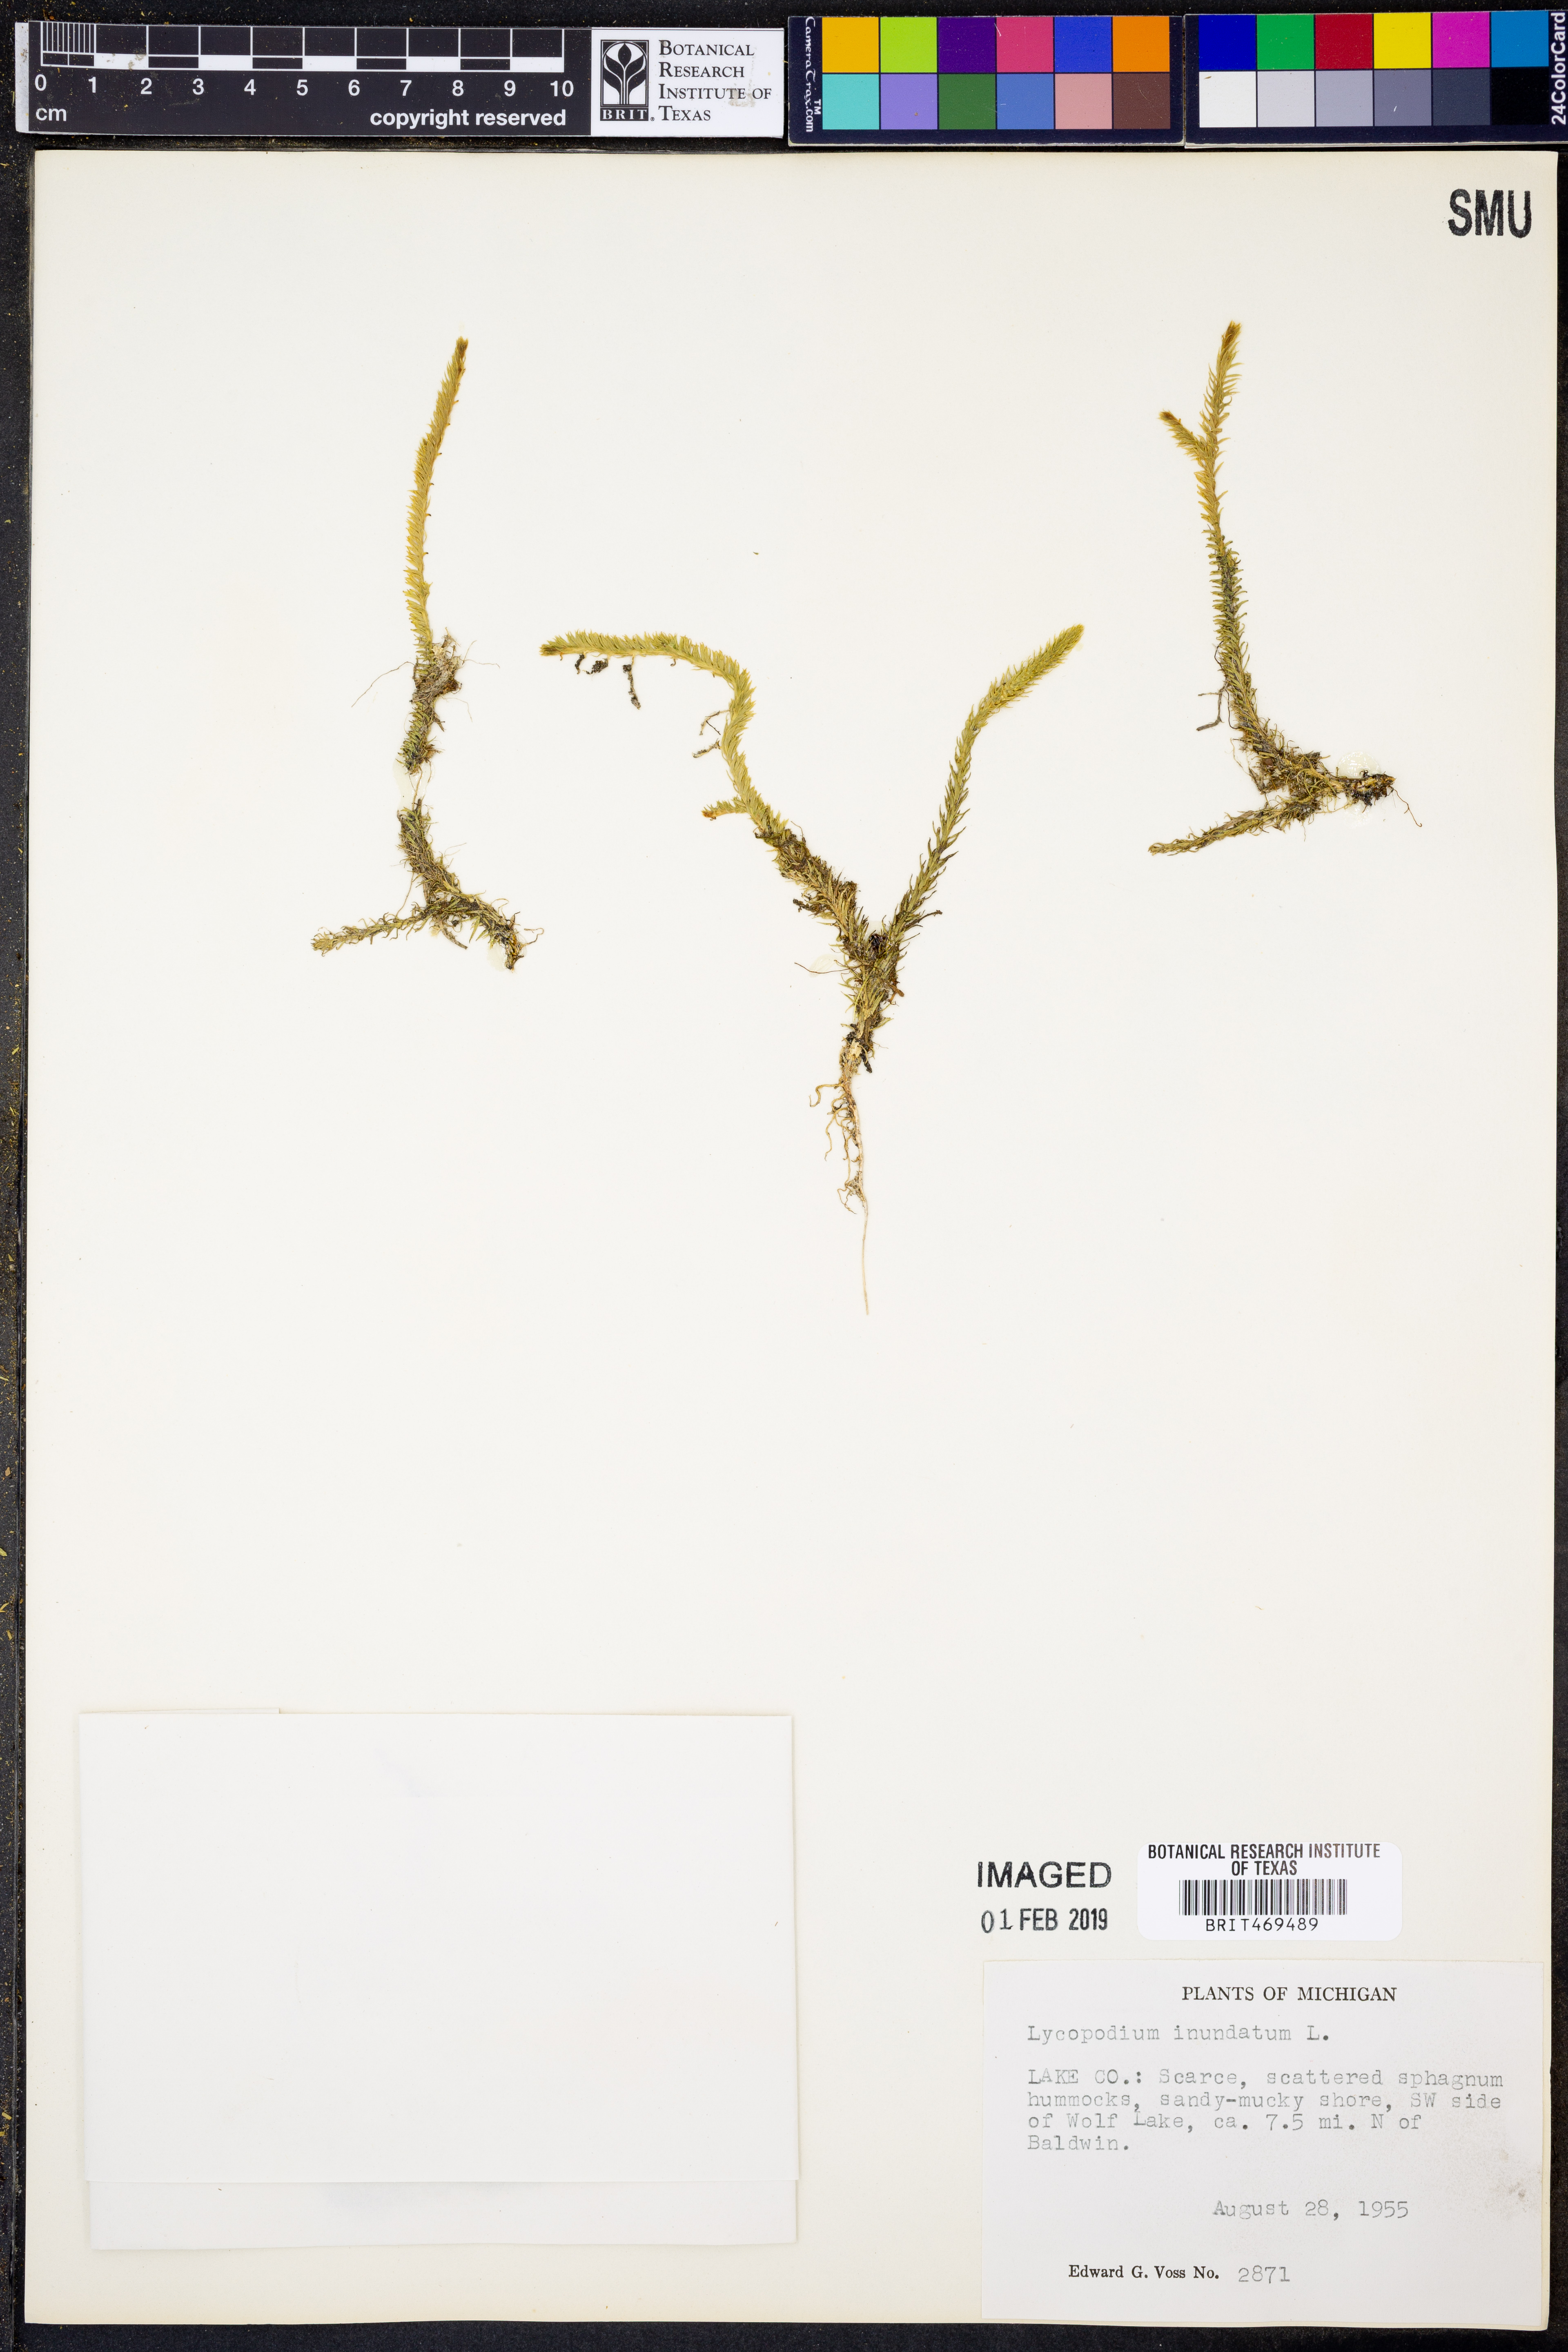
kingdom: Plantae
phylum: Tracheophyta
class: Lycopodiopsida
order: Lycopodiales
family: Lycopodiaceae
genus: Lycopodiella
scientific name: Lycopodiella inundata
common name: Marsh clubmoss
